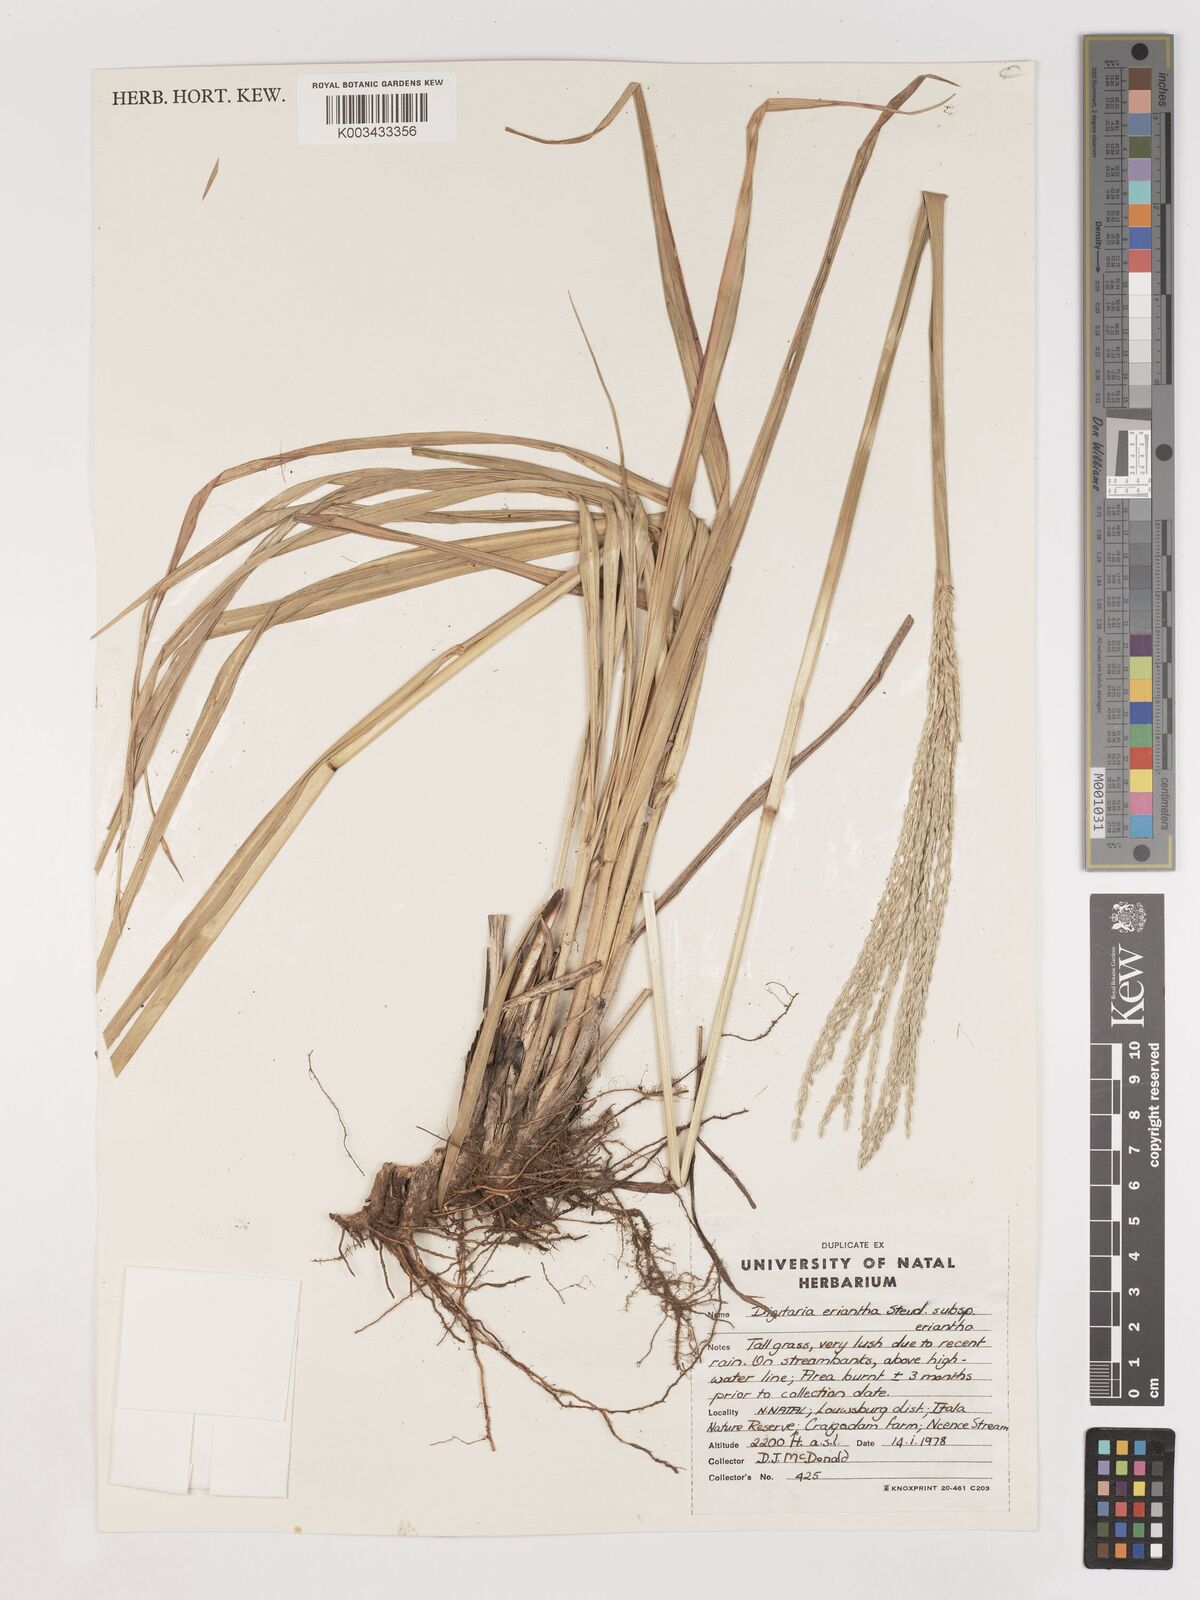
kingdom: Plantae
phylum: Tracheophyta
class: Liliopsida
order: Poales
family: Poaceae
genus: Digitaria
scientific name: Digitaria eriantha
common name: Digitgrass
